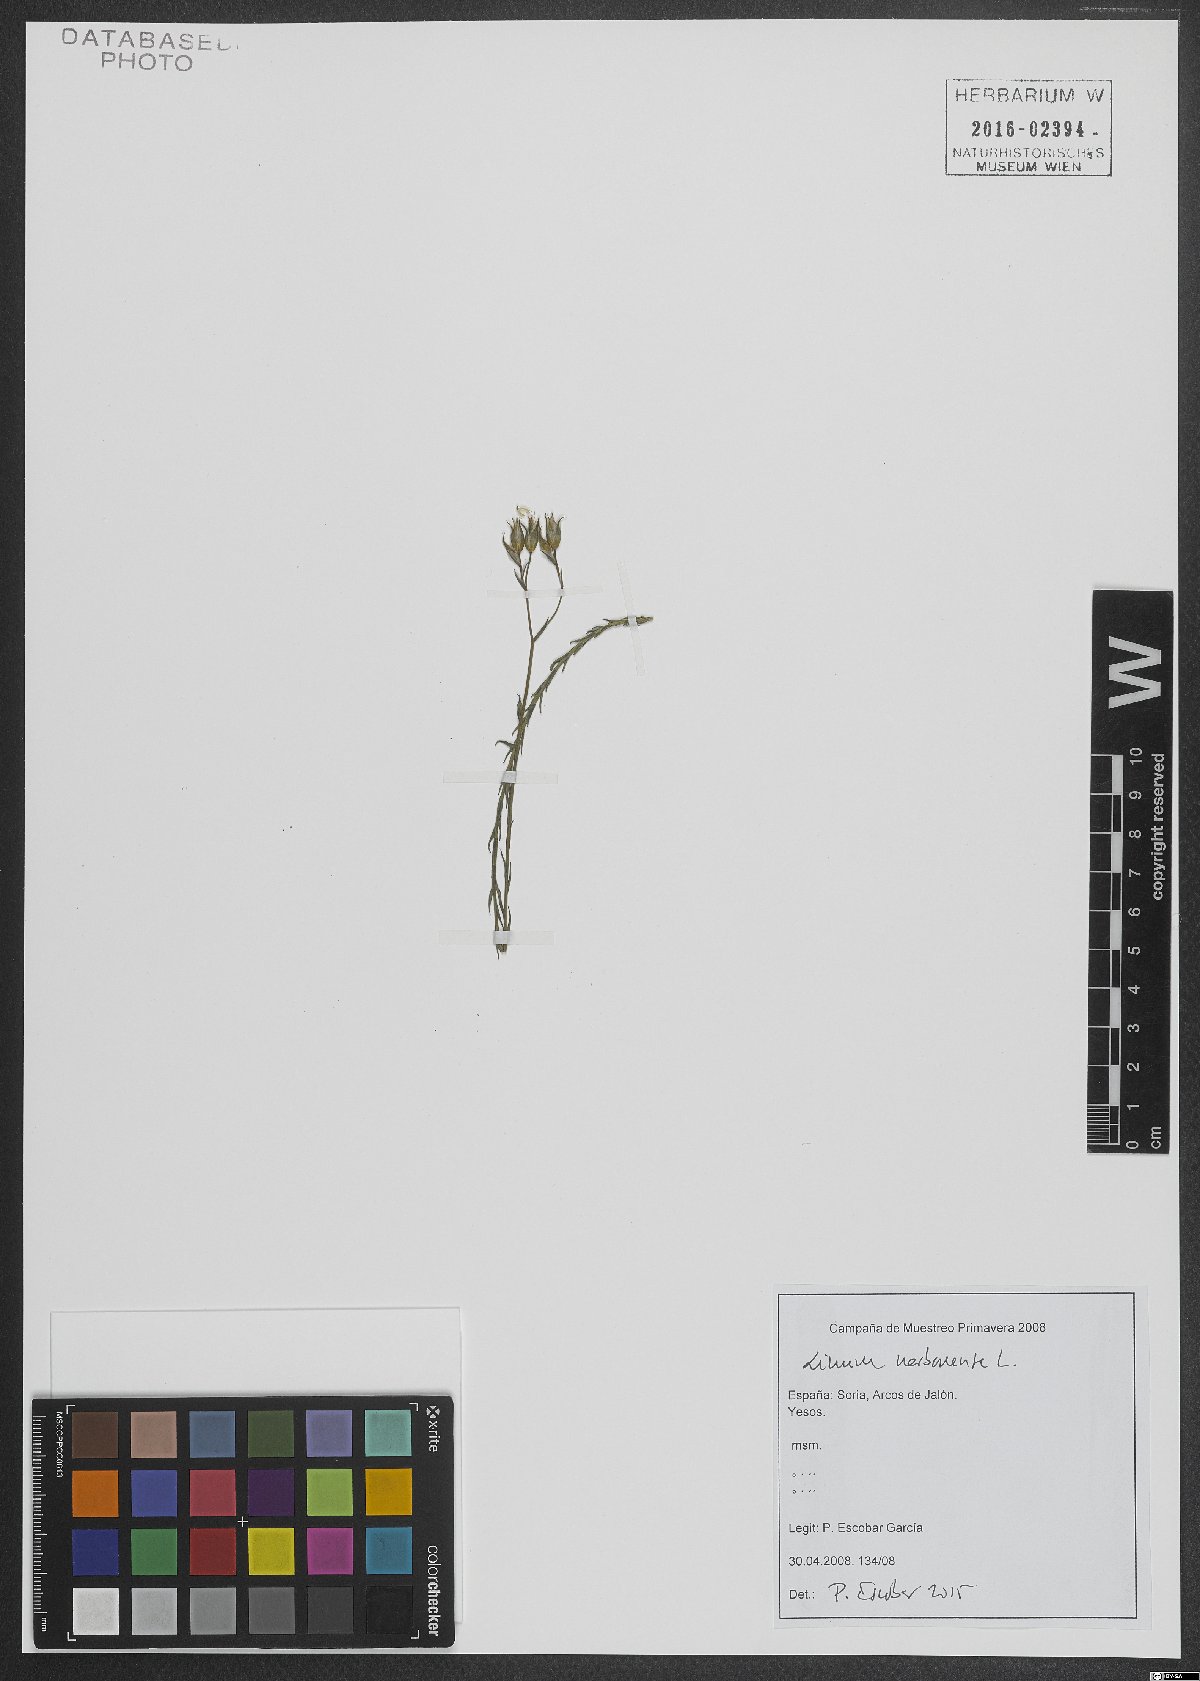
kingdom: Plantae
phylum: Tracheophyta
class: Magnoliopsida
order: Malpighiales
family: Linaceae
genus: Linum
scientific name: Linum narbonense
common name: Flax
